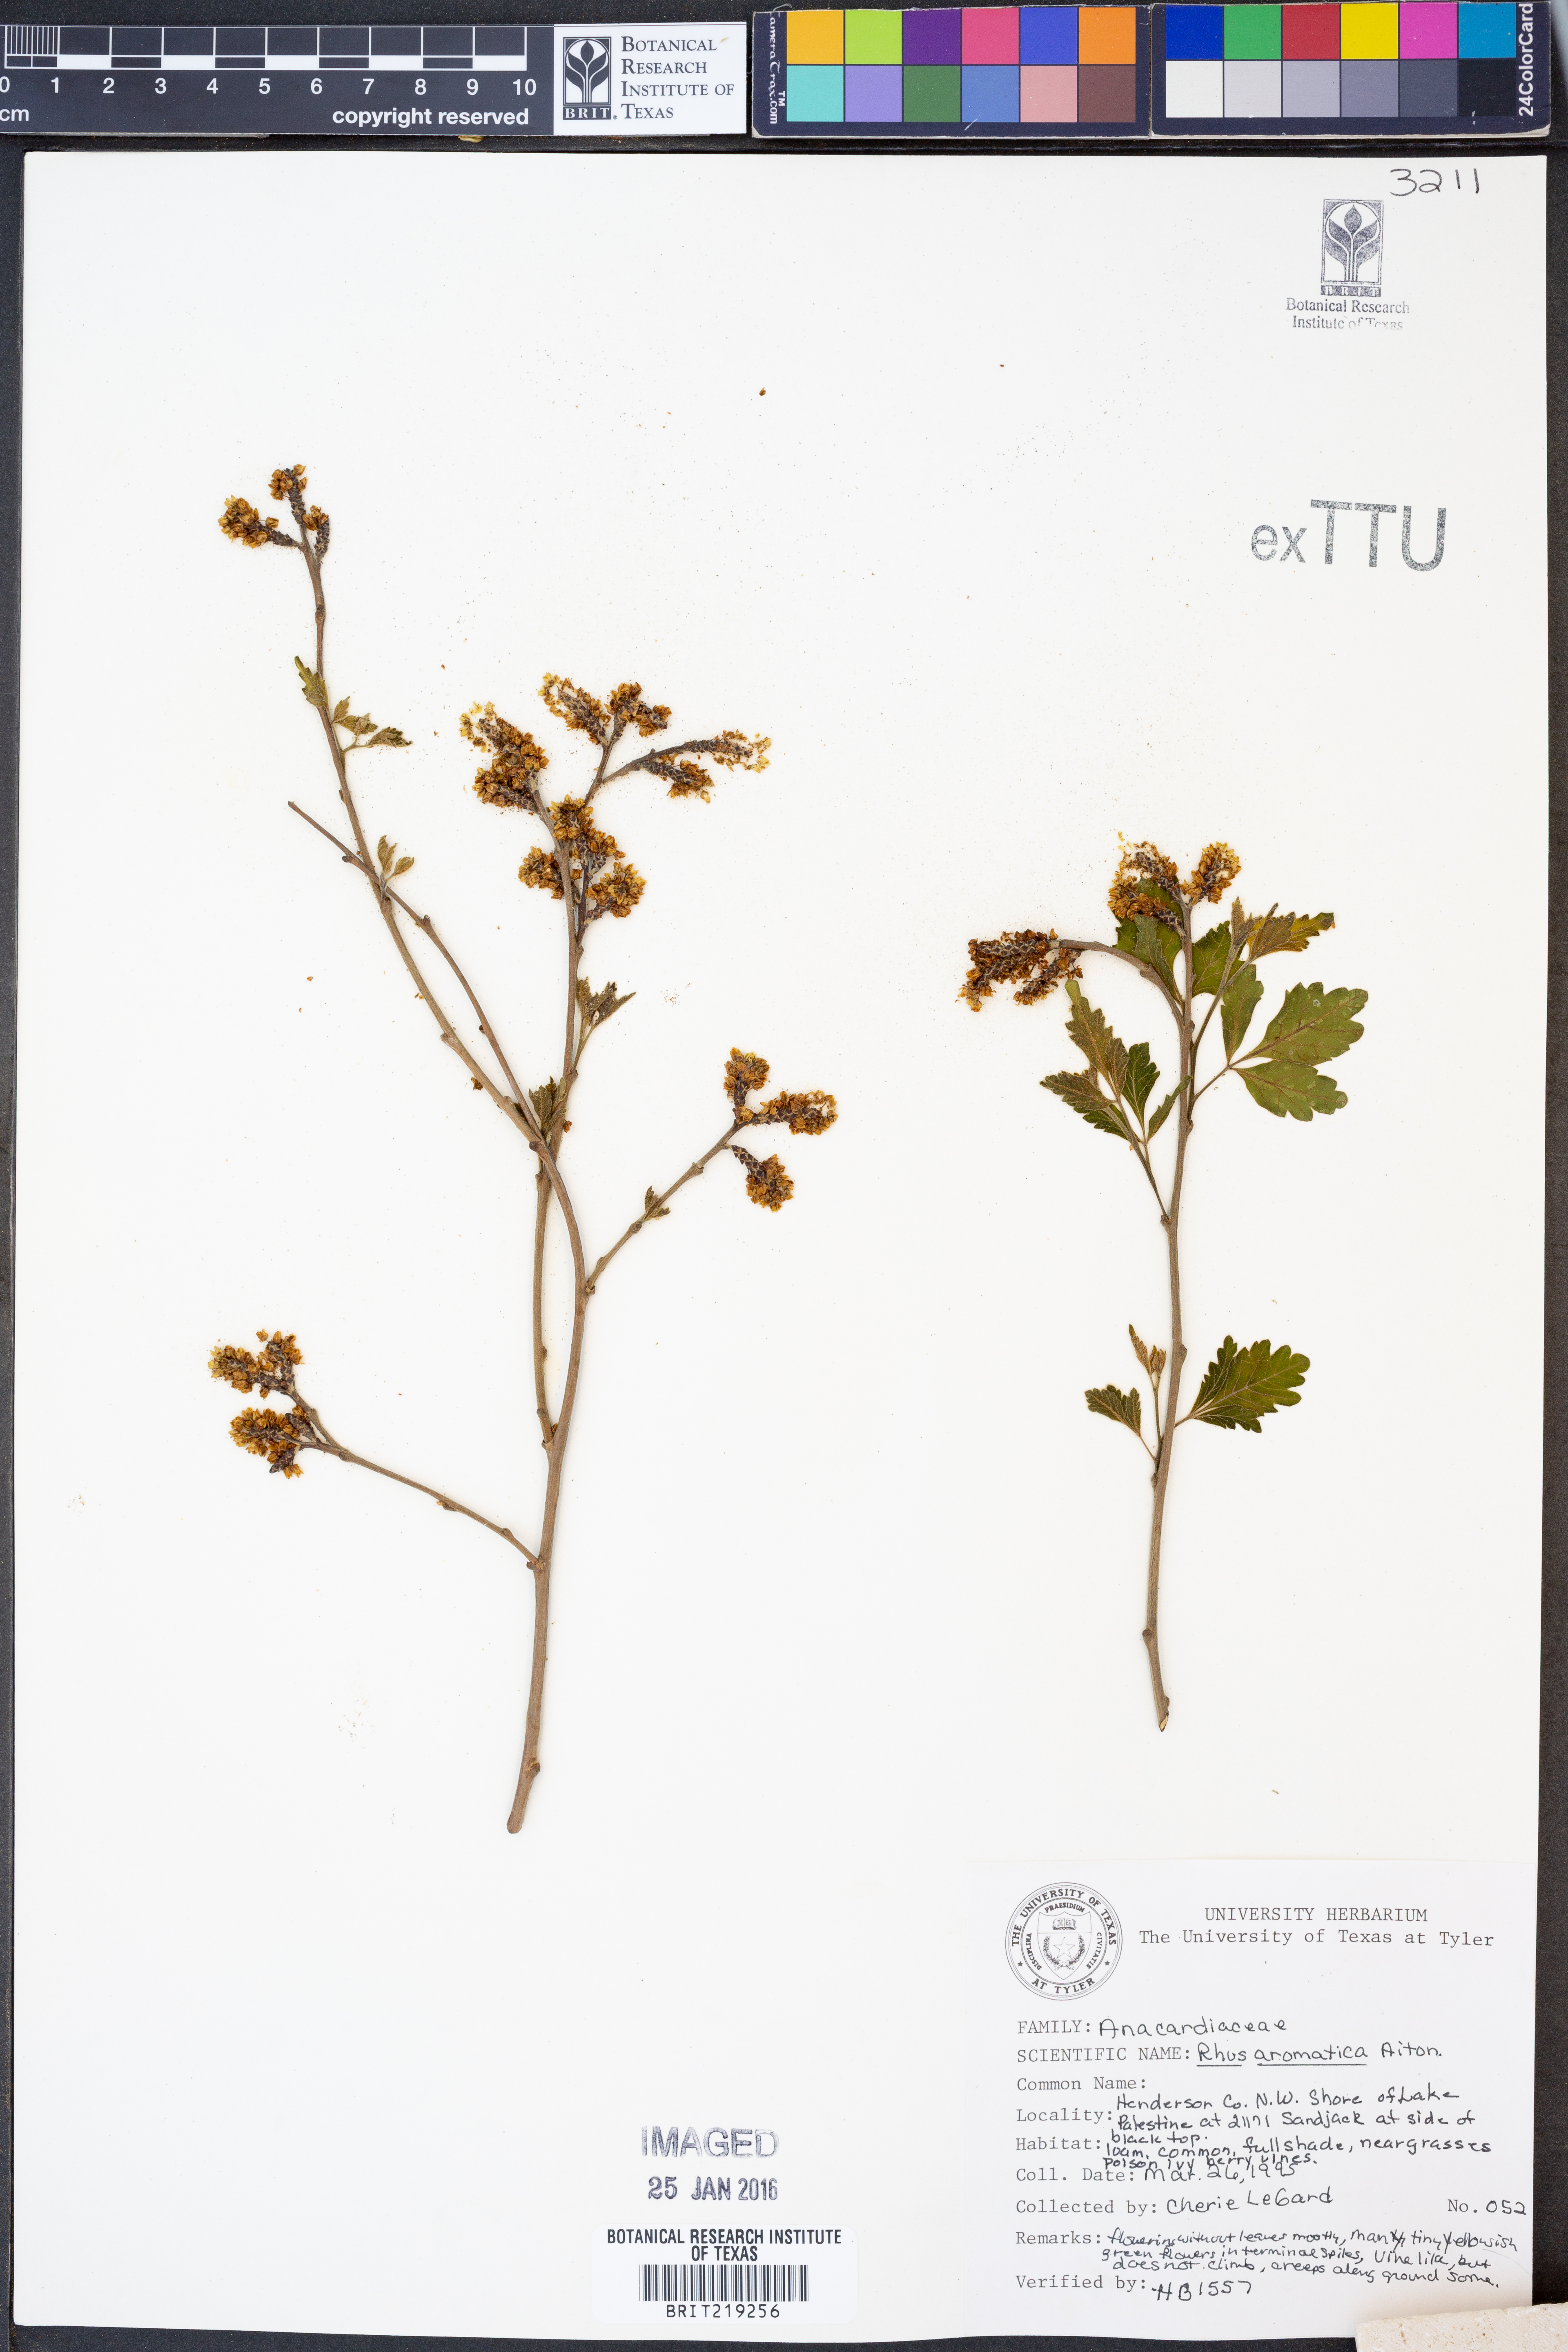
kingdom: Plantae
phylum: Tracheophyta
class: Magnoliopsida
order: Sapindales
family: Anacardiaceae
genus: Rhus
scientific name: Rhus aromatica
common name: Aromatic sumac
